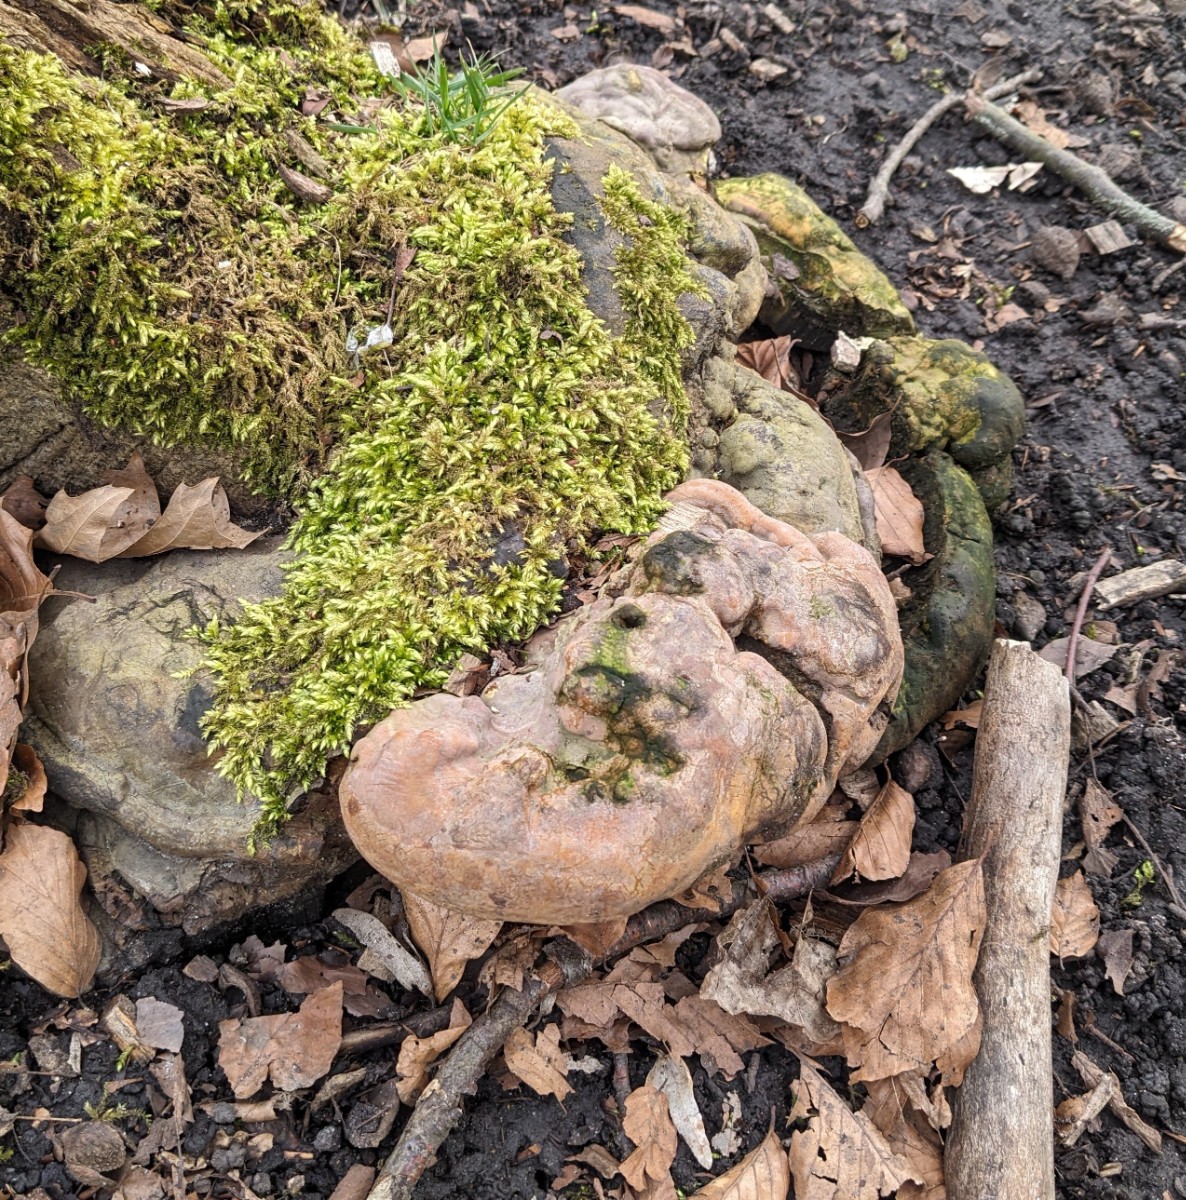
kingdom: Fungi
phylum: Basidiomycota
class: Agaricomycetes
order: Polyporales
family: Polyporaceae
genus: Ganoderma
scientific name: Ganoderma pfeifferi
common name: kobberrød lakporesvamp
